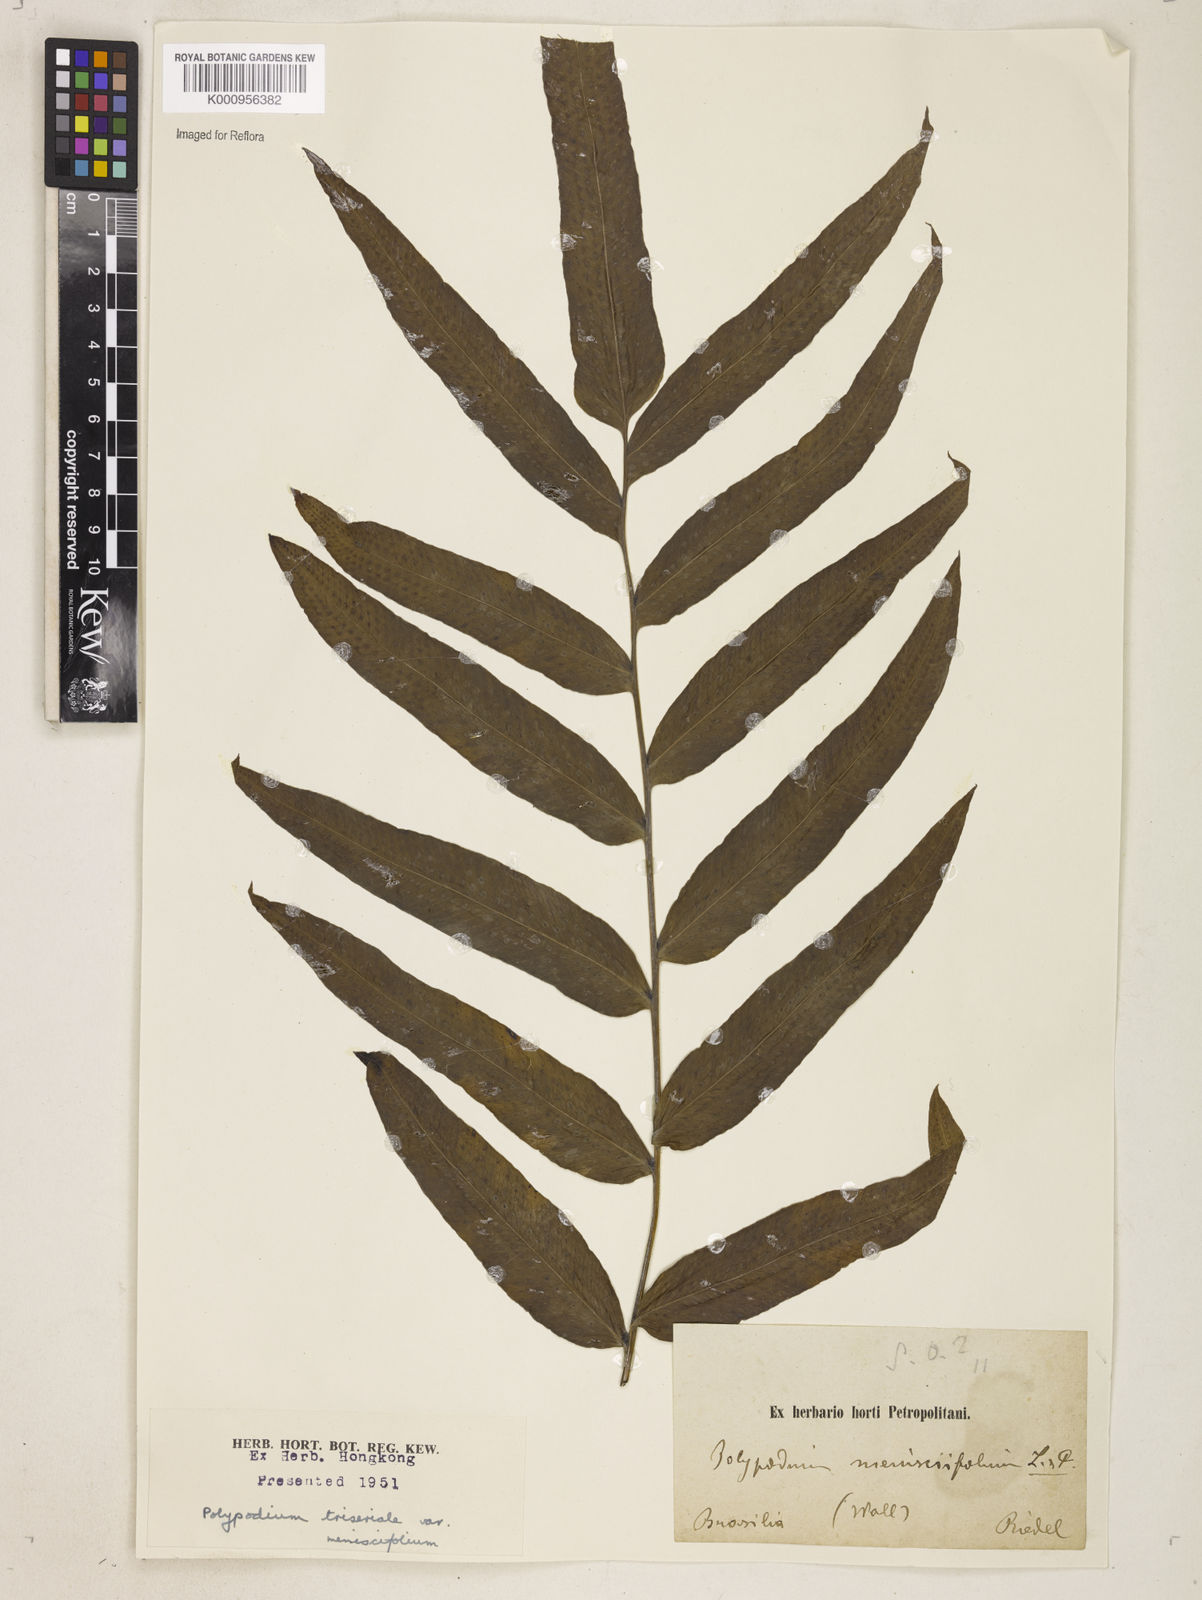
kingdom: Plantae
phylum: Tracheophyta
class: Polypodiopsida
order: Polypodiales
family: Polypodiaceae
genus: Serpocaulon
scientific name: Serpocaulon triseriale
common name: Angle-vein fern
